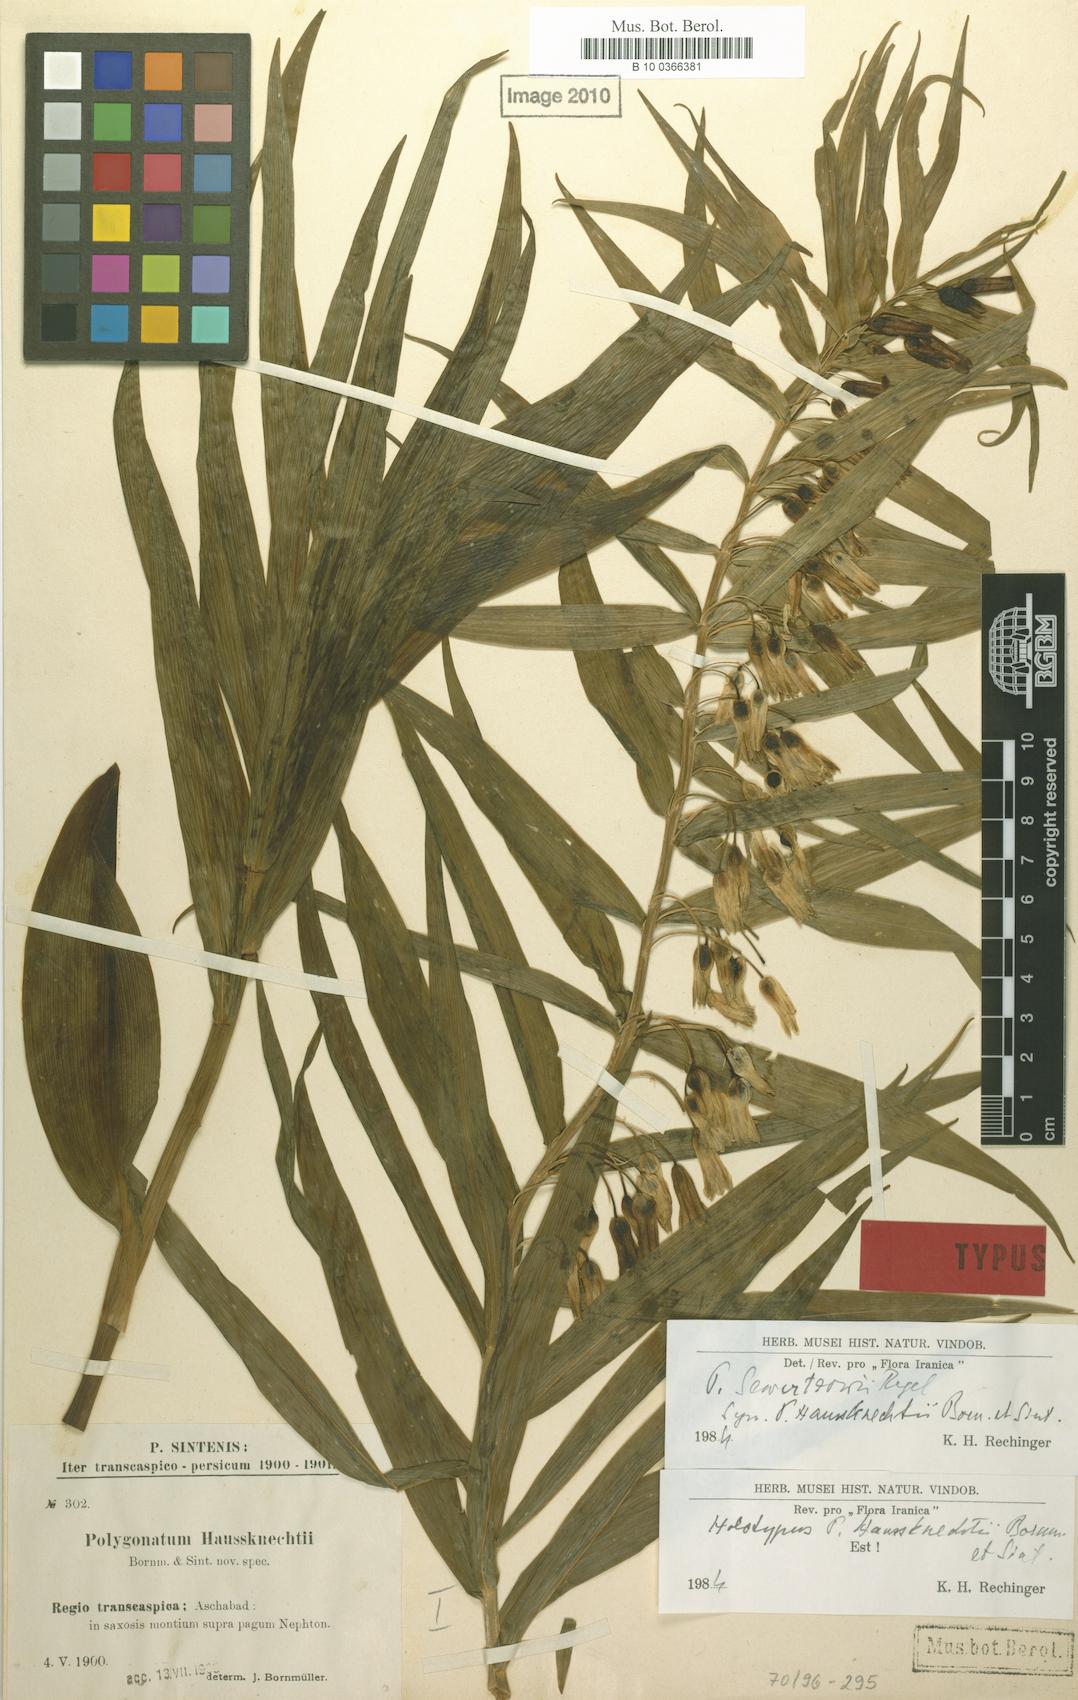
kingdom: Plantae
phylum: Tracheophyta
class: Liliopsida
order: Asparagales
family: Asparagaceae
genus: Polygonatum
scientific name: Polygonatum sewerzowii
